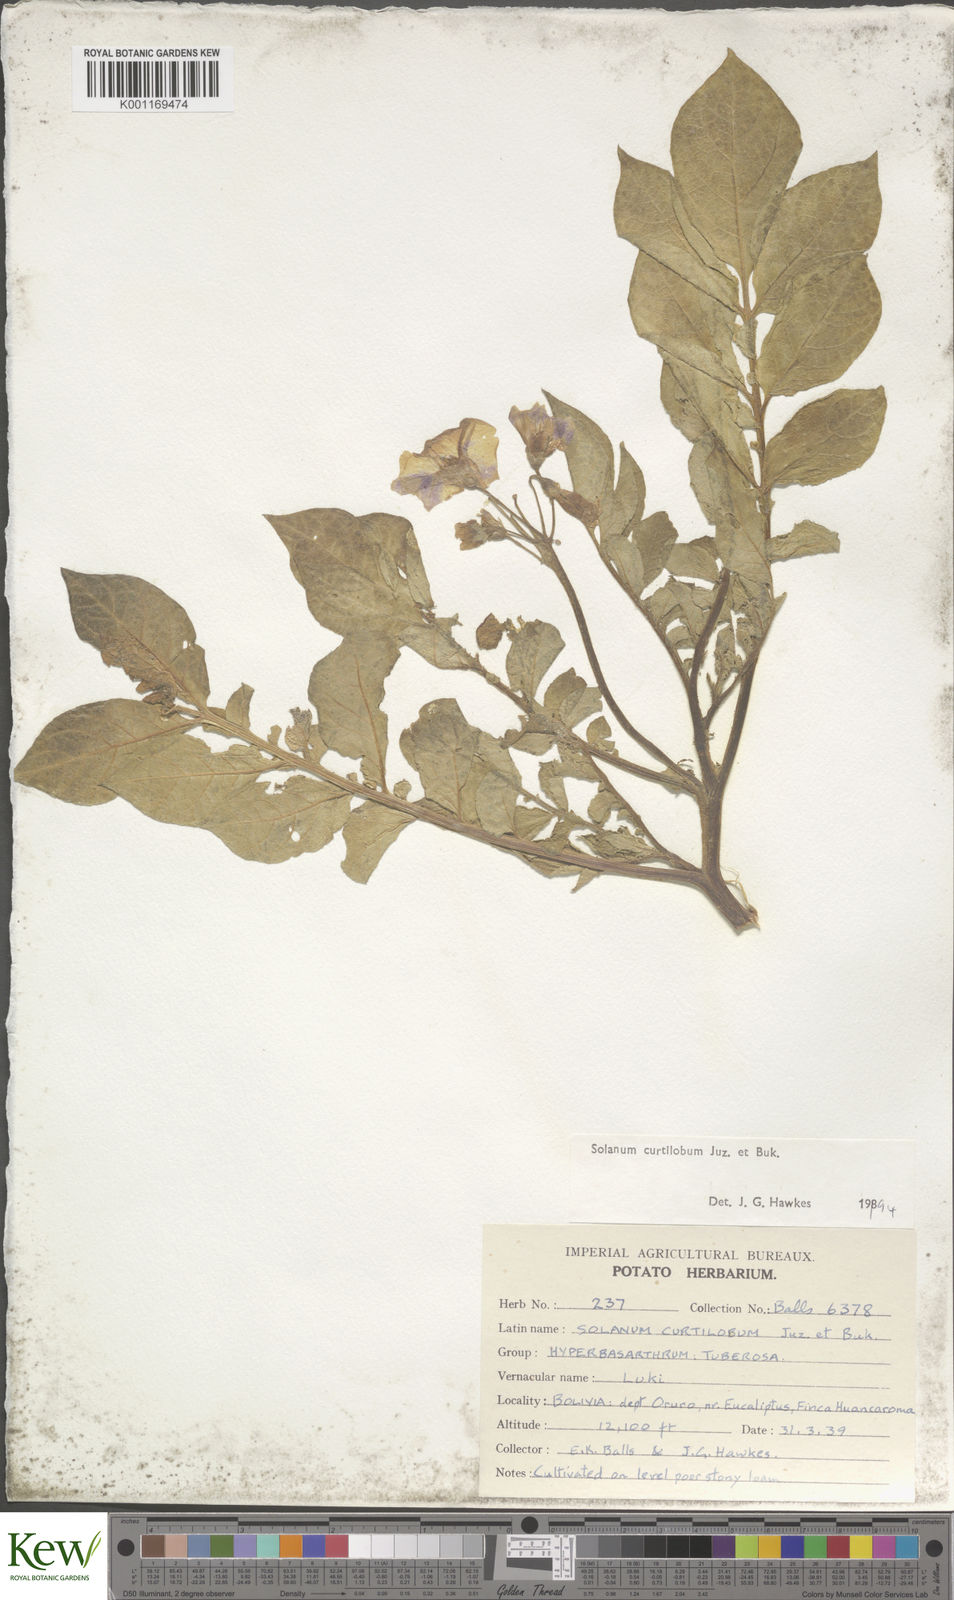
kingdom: Plantae
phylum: Tracheophyta
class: Magnoliopsida
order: Solanales
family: Solanaceae
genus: Solanum
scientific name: Solanum curtilobum
